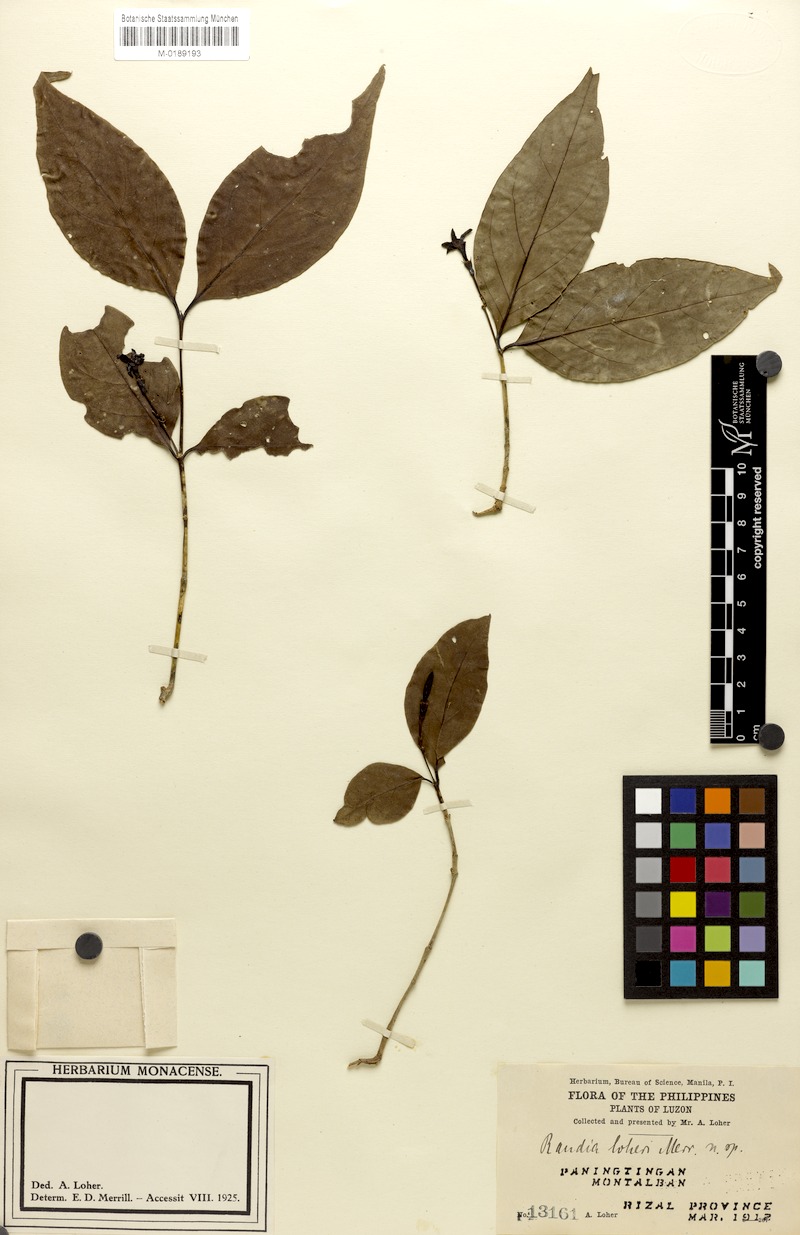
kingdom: Plantae
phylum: Tracheophyta
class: Magnoliopsida
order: Gentianales
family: Rubiaceae
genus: Randia
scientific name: Randia loheri
